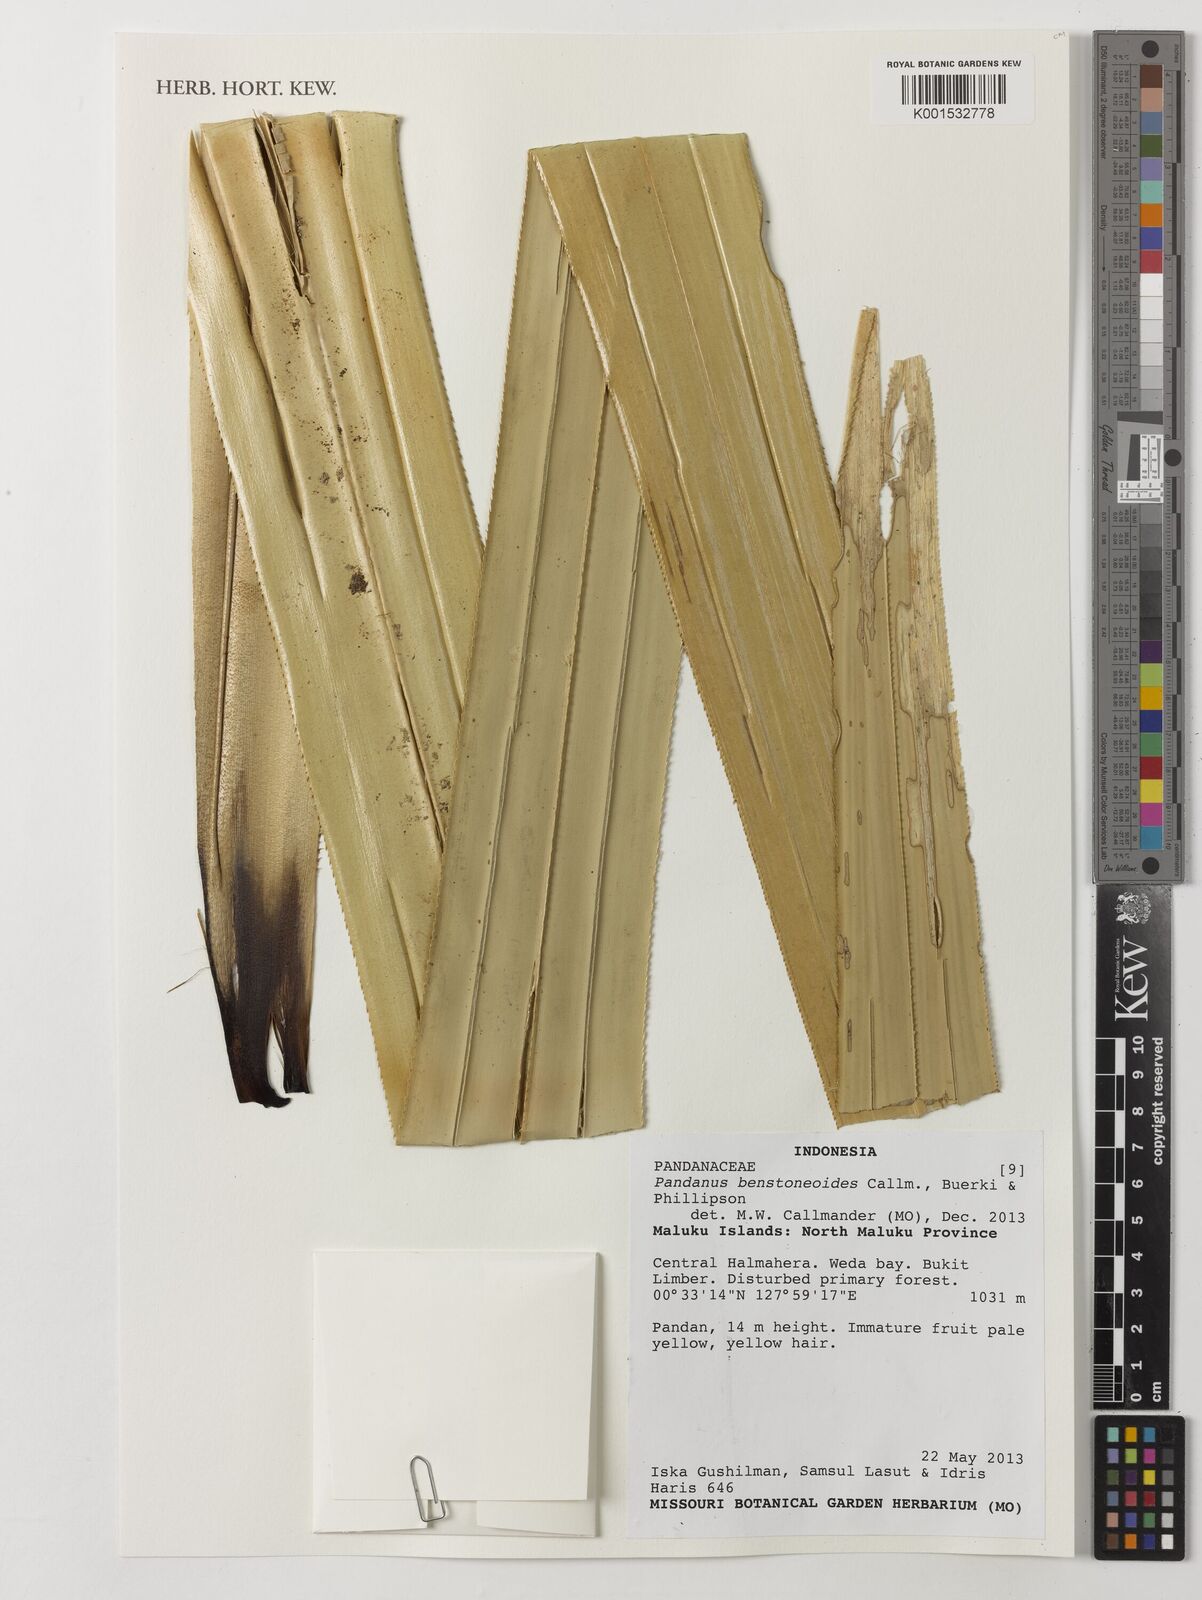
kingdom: Plantae
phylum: Tracheophyta
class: Liliopsida
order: Pandanales
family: Pandanaceae
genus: Pandanus
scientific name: Pandanus benstoneoides
